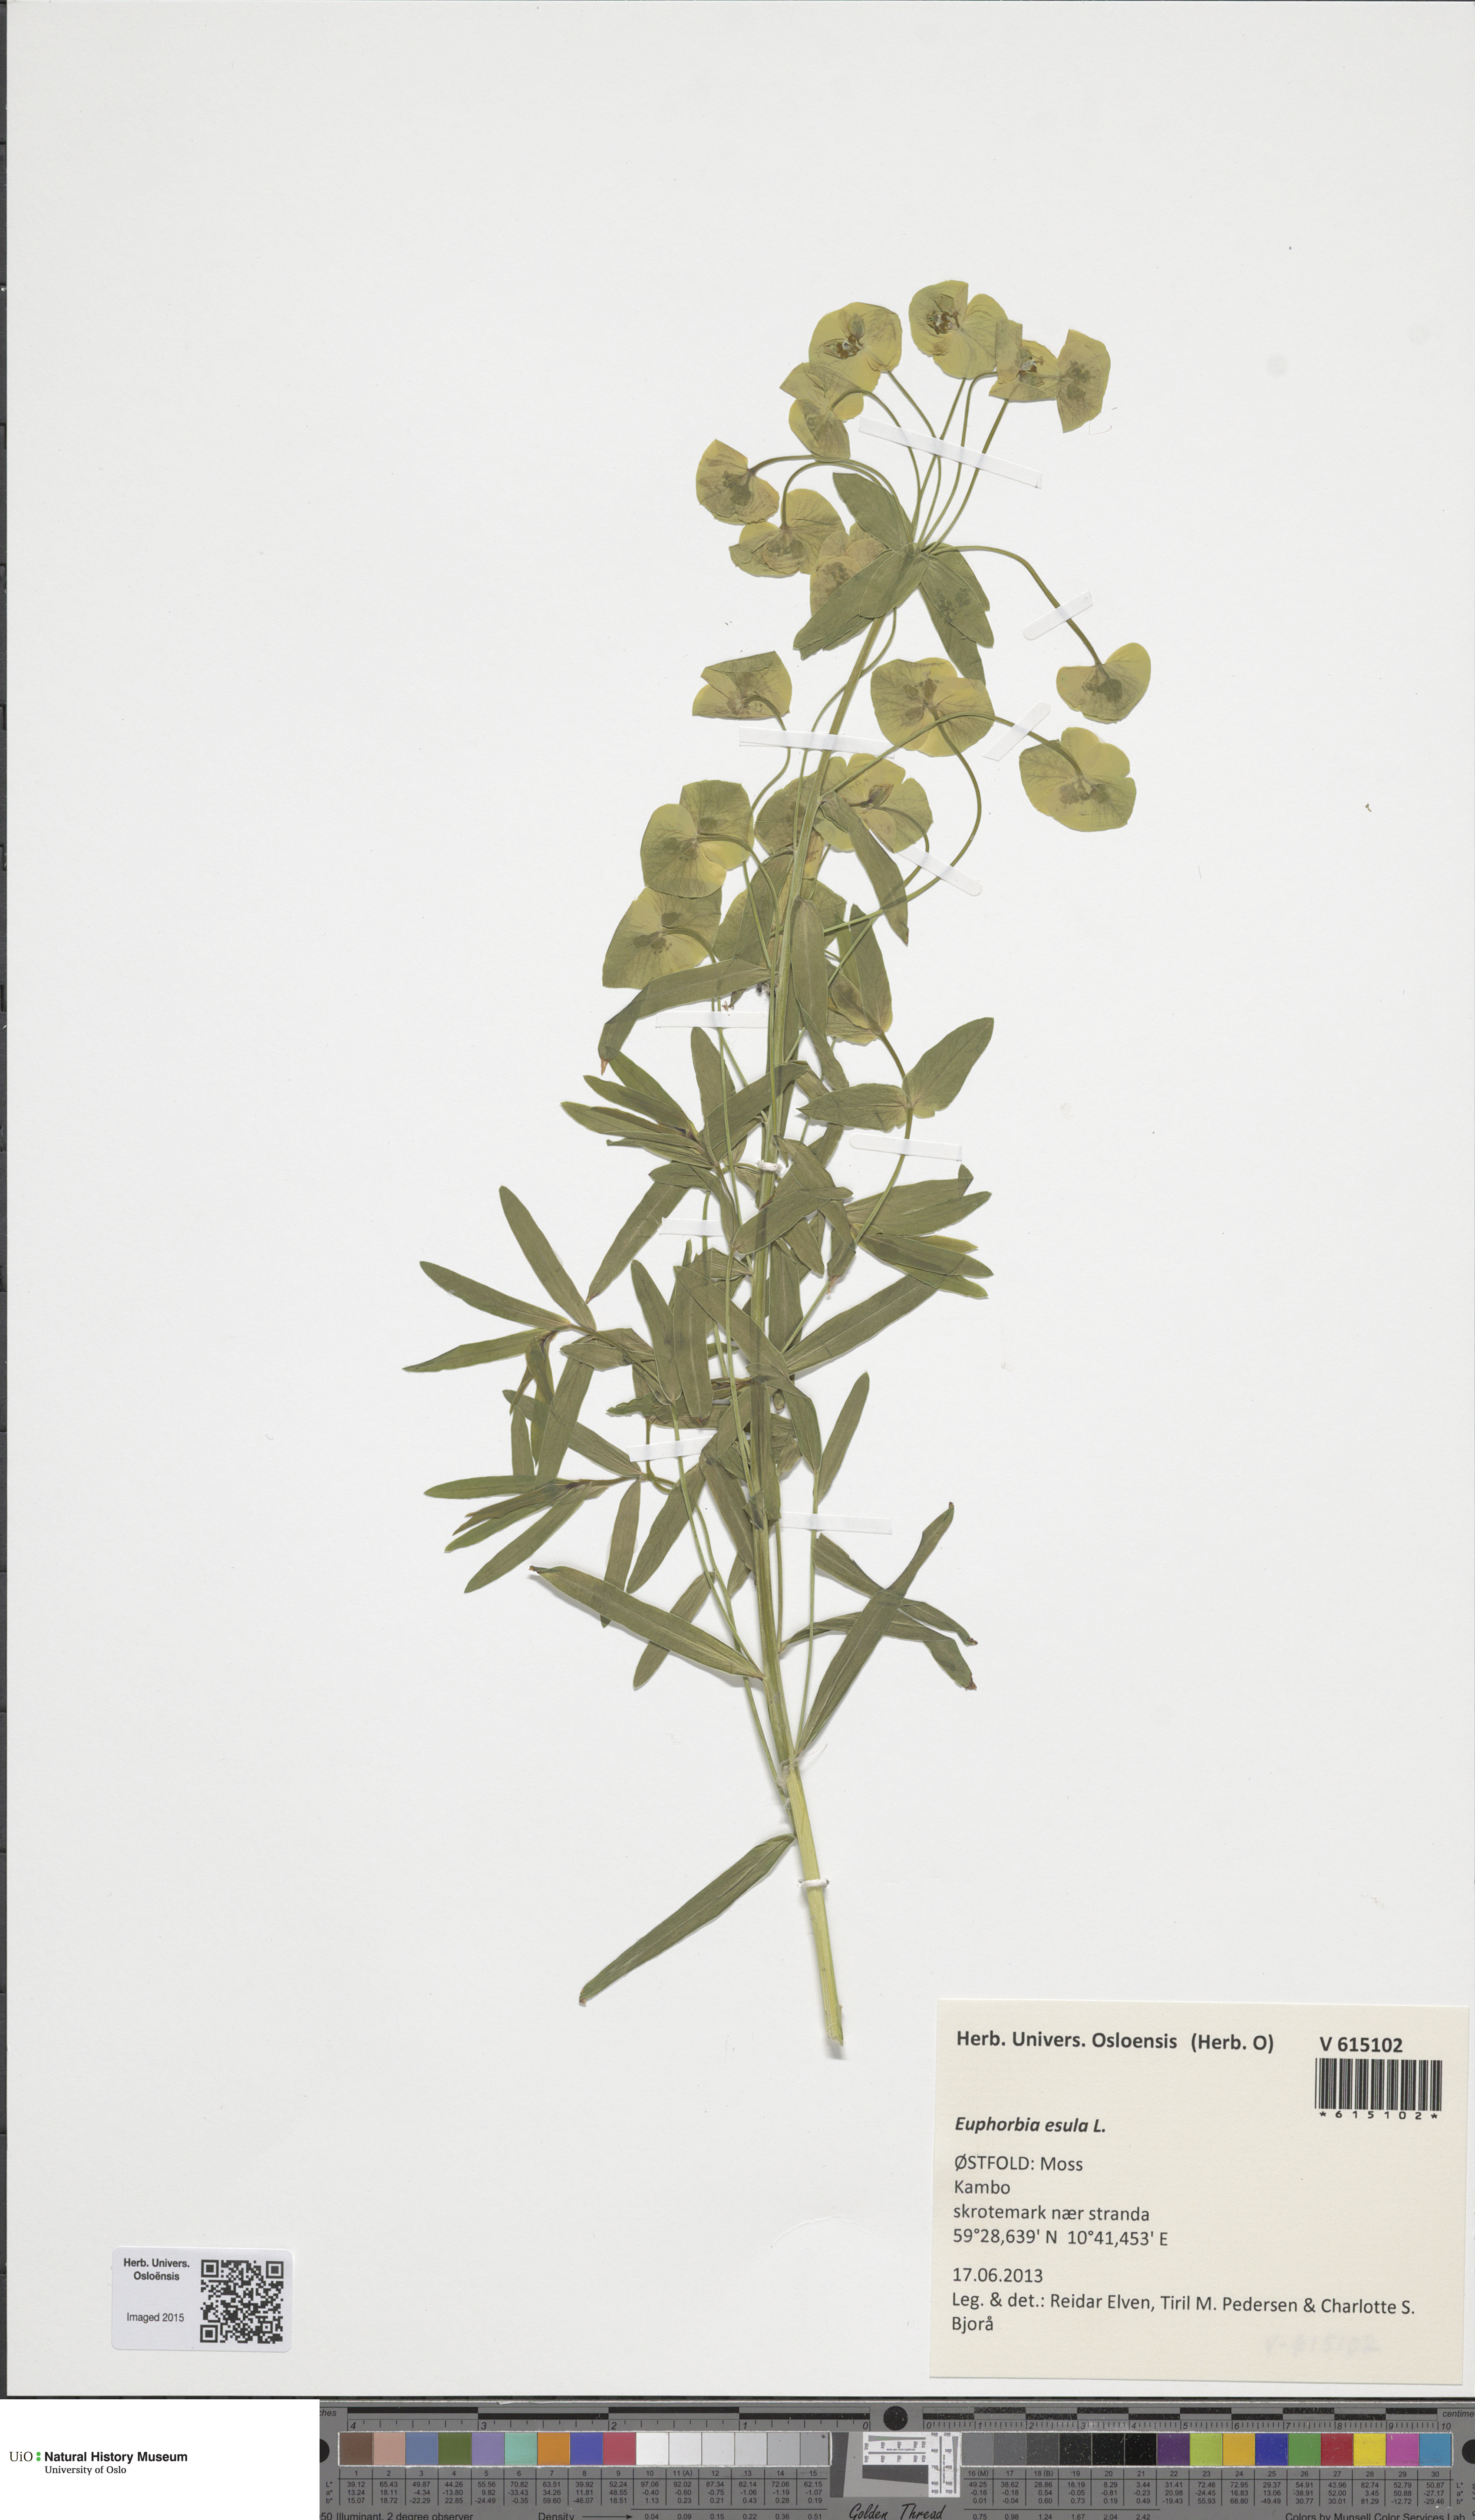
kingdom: Plantae
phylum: Tracheophyta
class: Magnoliopsida
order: Malpighiales
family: Euphorbiaceae
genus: Euphorbia
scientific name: Euphorbia tommasiniana
